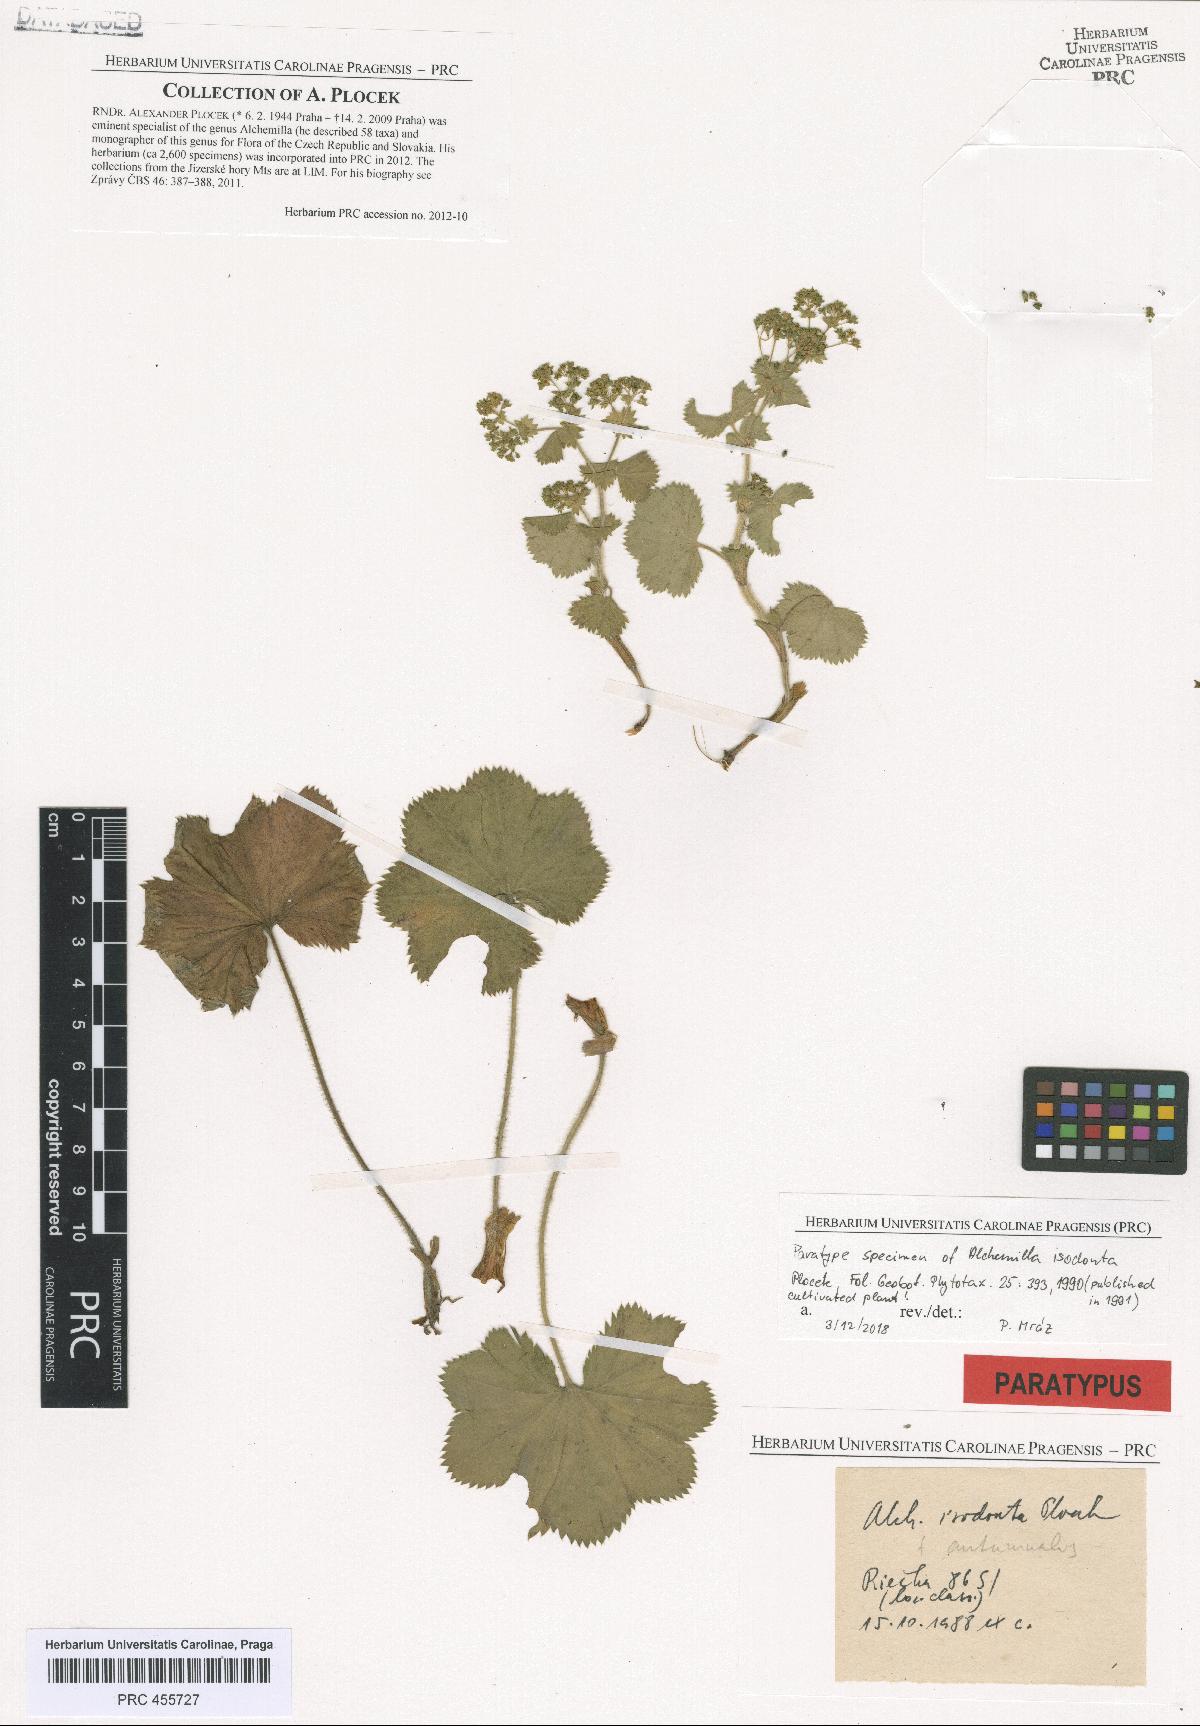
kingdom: Plantae
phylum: Tracheophyta
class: Magnoliopsida
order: Rosales
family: Rosaceae
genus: Alchemilla
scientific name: Alchemilla isodonta
